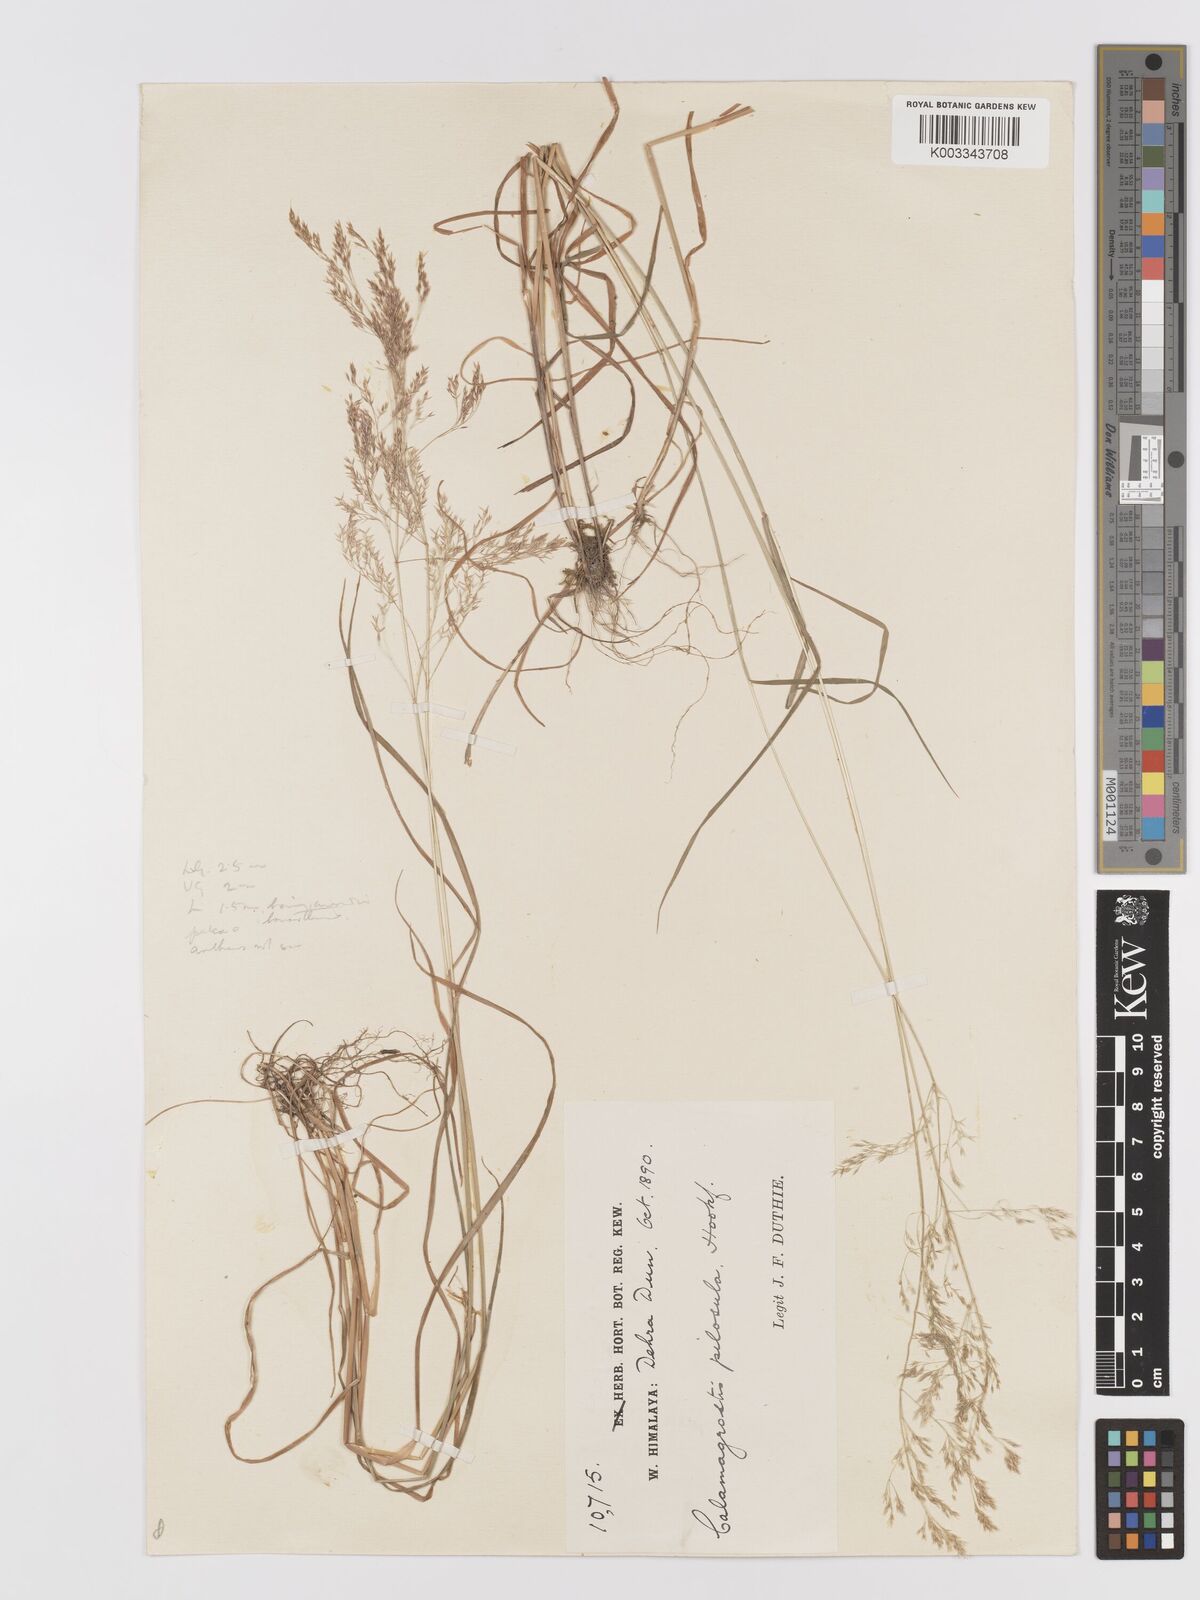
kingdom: Plantae
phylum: Tracheophyta
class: Liliopsida
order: Poales
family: Poaceae
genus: Agrostis
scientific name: Agrostis pilosula
